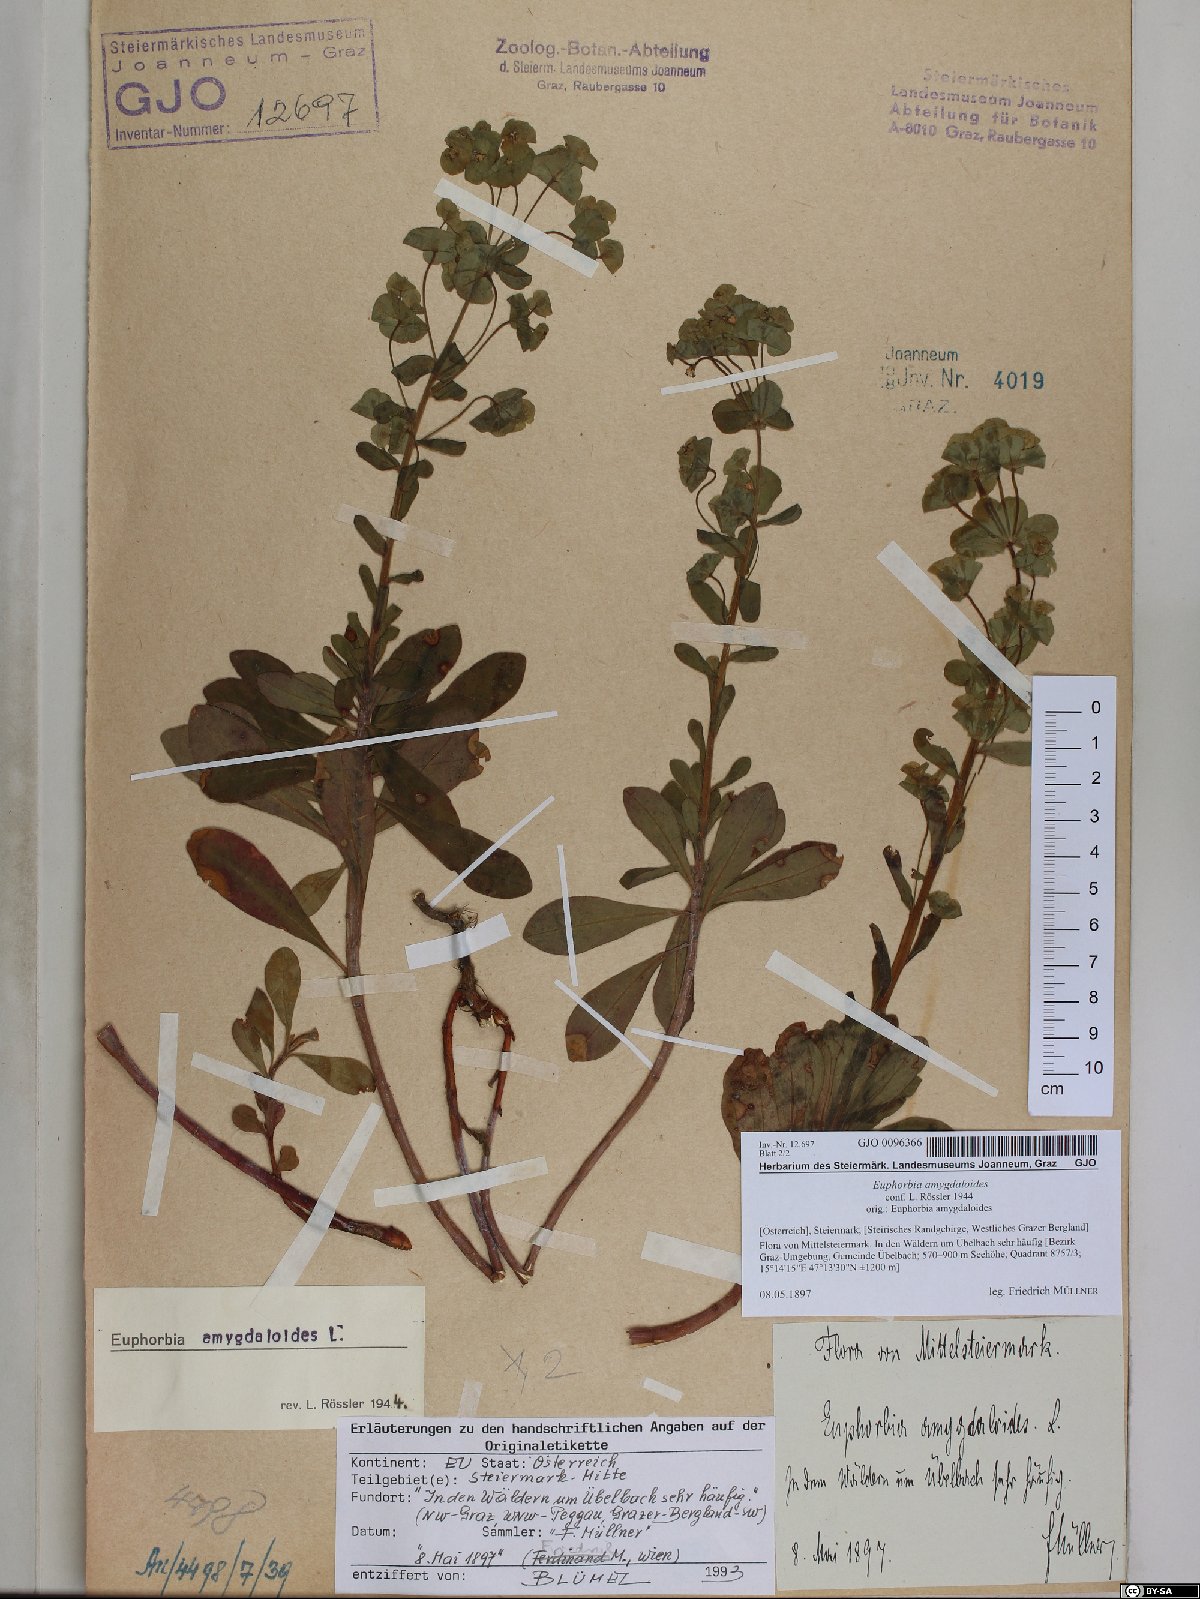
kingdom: Plantae
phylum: Tracheophyta
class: Magnoliopsida
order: Malpighiales
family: Euphorbiaceae
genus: Euphorbia
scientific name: Euphorbia amygdaloides
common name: Wood spurge
